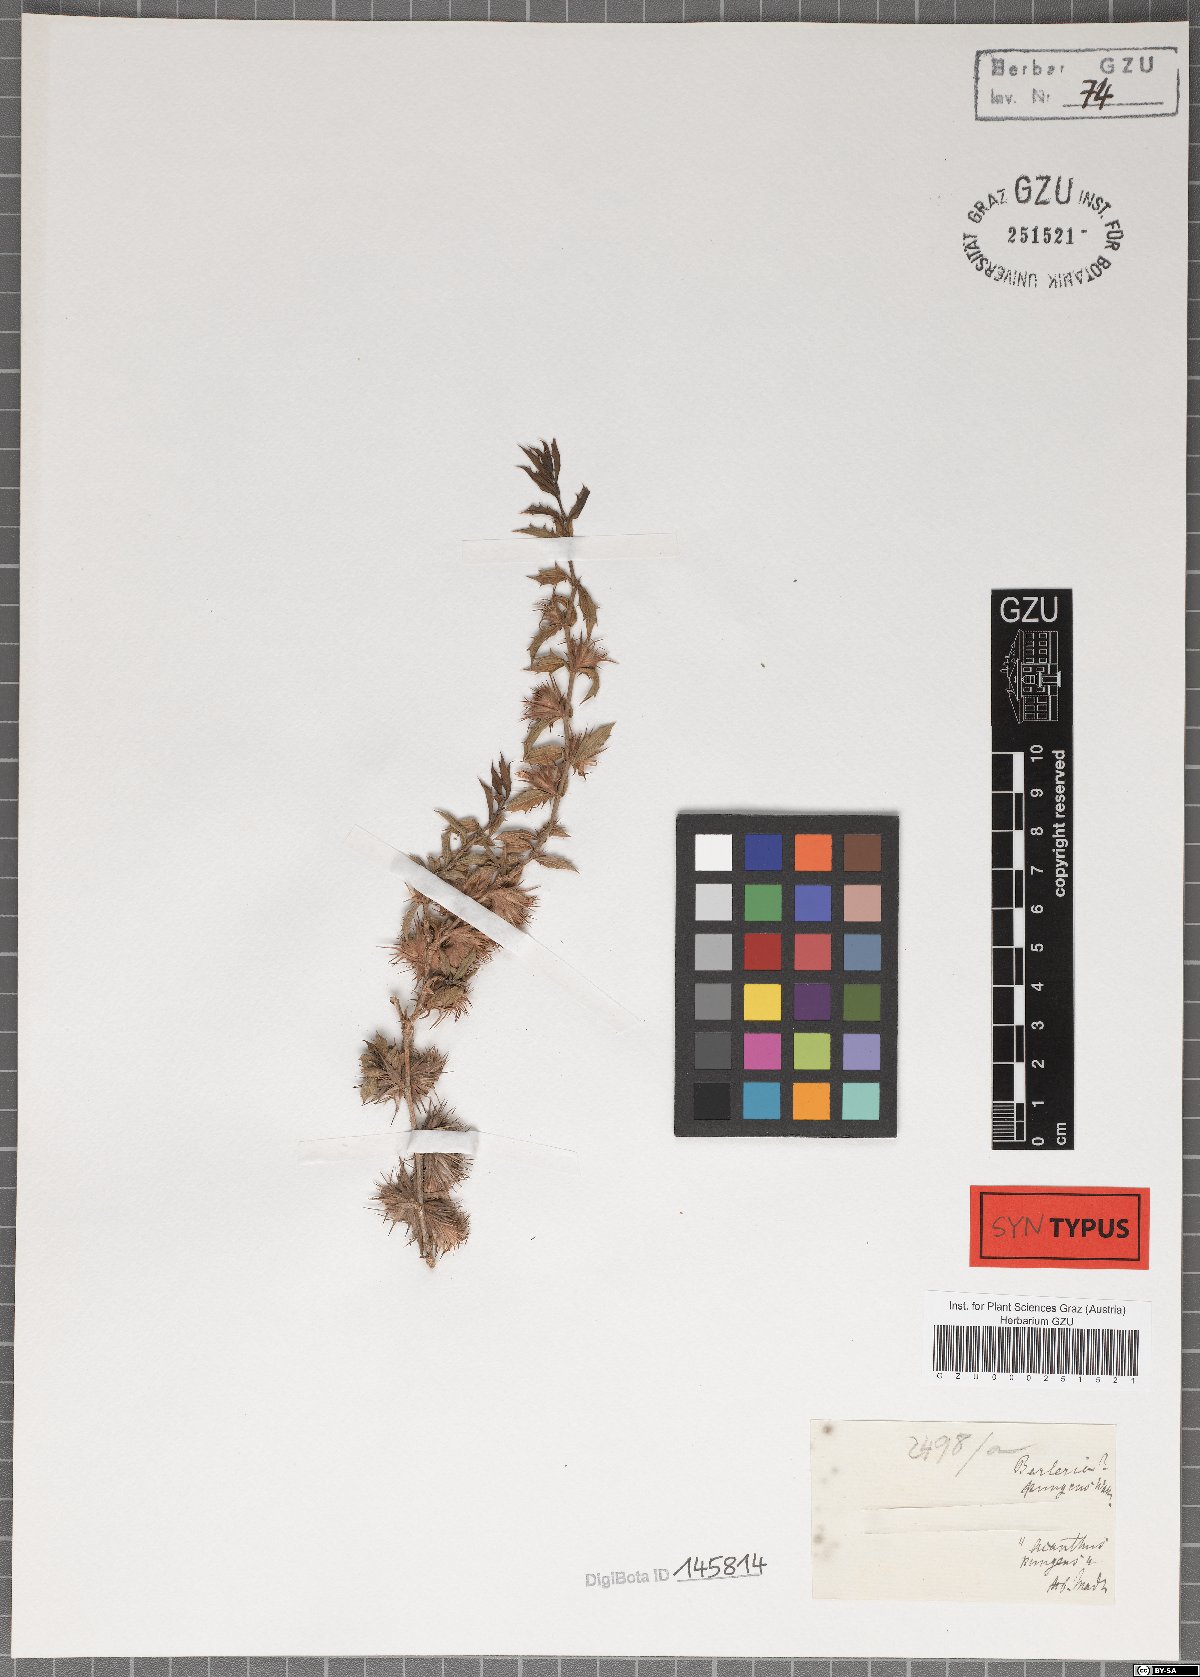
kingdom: Plantae
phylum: Tracheophyta
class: Magnoliopsida
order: Lamiales
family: Acanthaceae
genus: Lepidagathis
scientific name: Lepidagathis pungens
